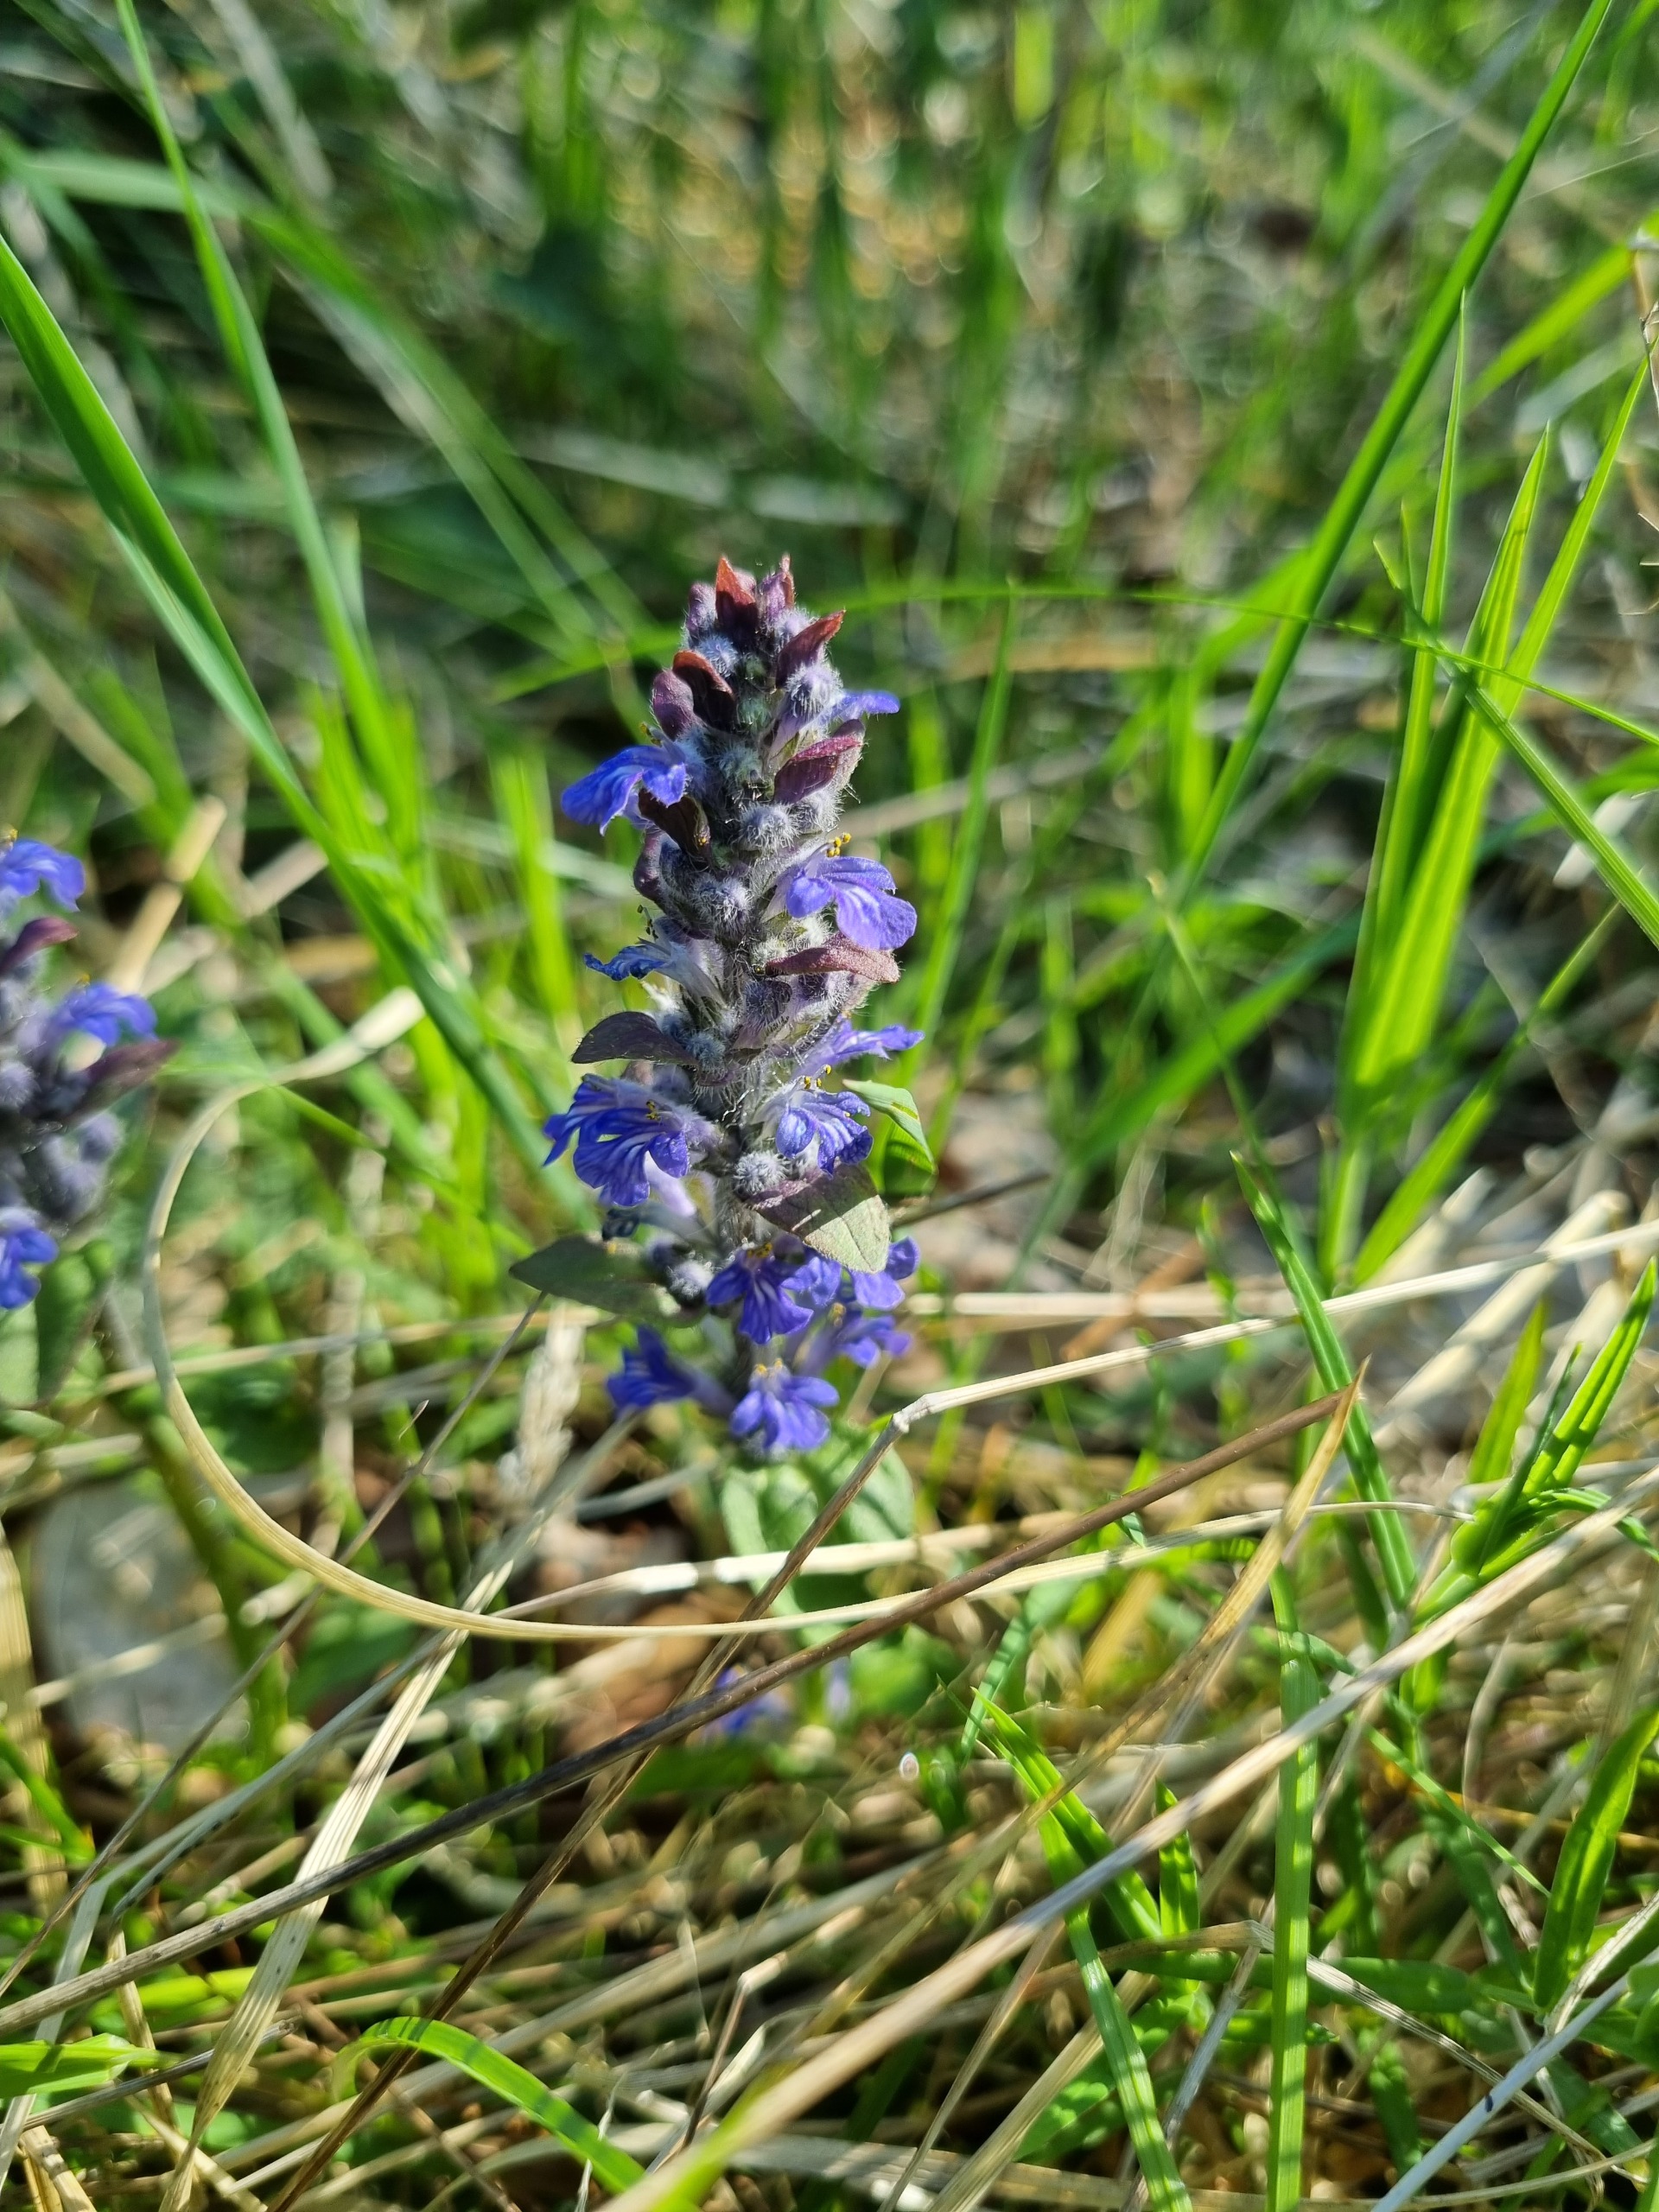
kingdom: Plantae
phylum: Tracheophyta
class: Magnoliopsida
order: Lamiales
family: Lamiaceae
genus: Ajuga
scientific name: Ajuga reptans
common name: Krybende læbeløs
